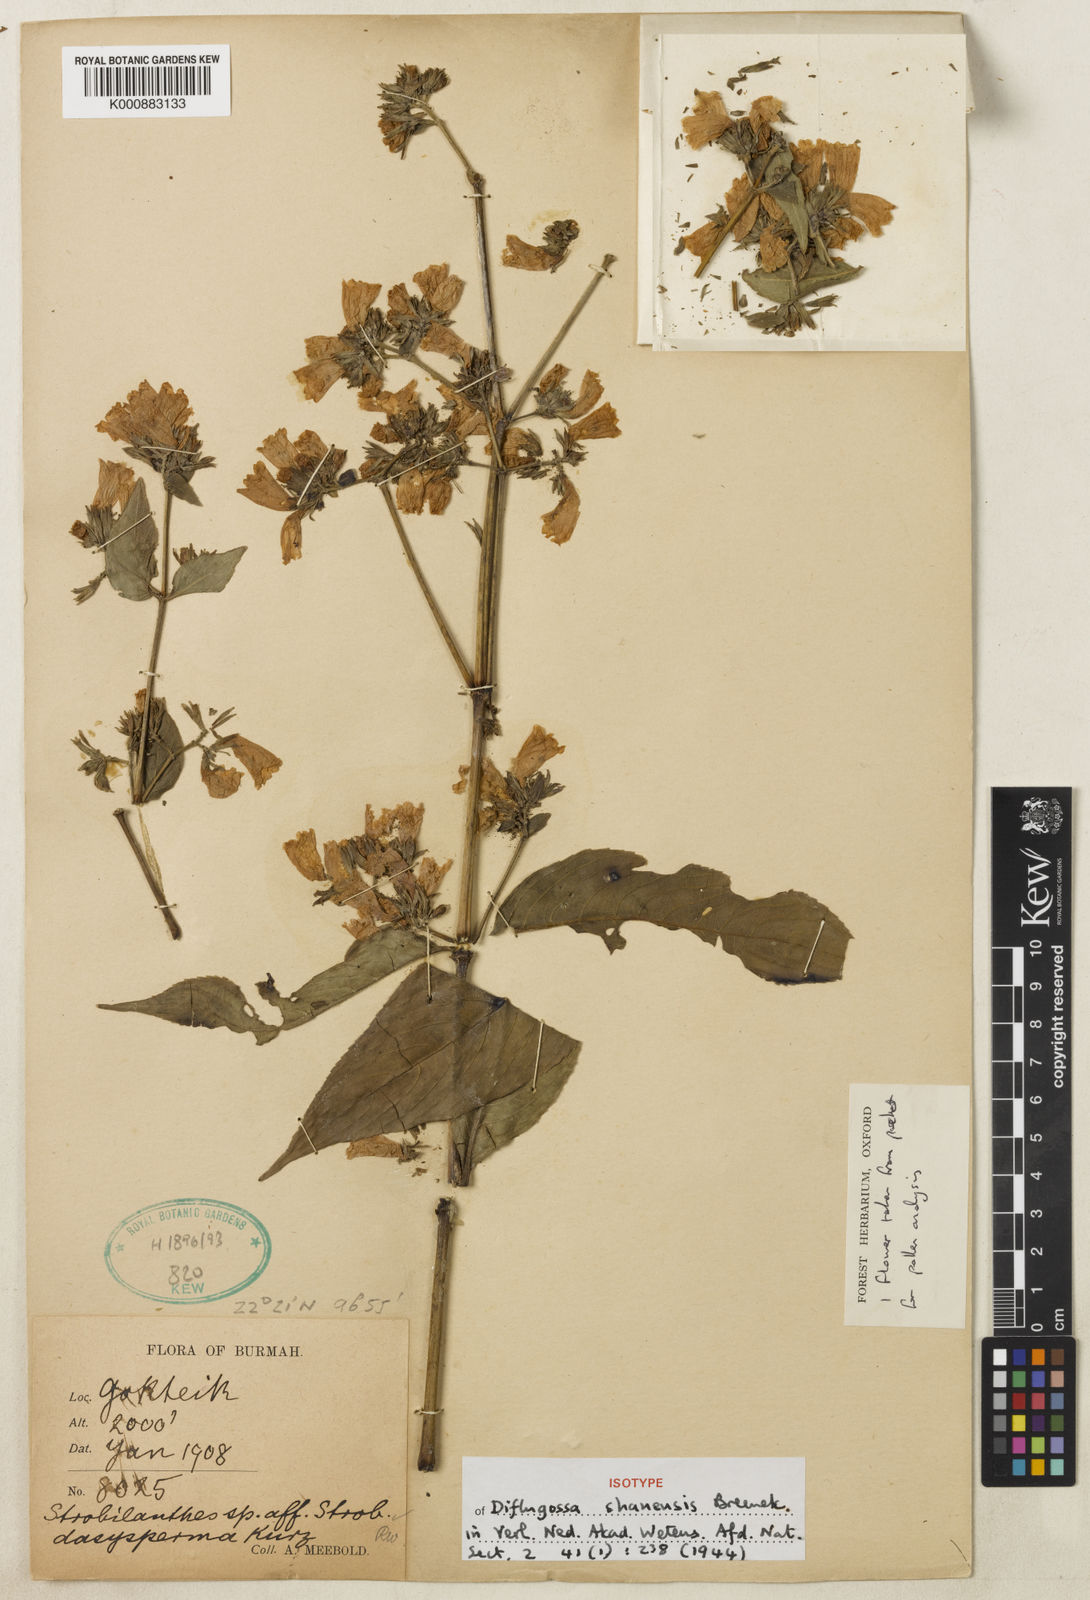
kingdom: Plantae
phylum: Tracheophyta
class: Magnoliopsida
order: Lamiales
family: Acanthaceae
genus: Strobilanthes
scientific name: Strobilanthes shanensis
